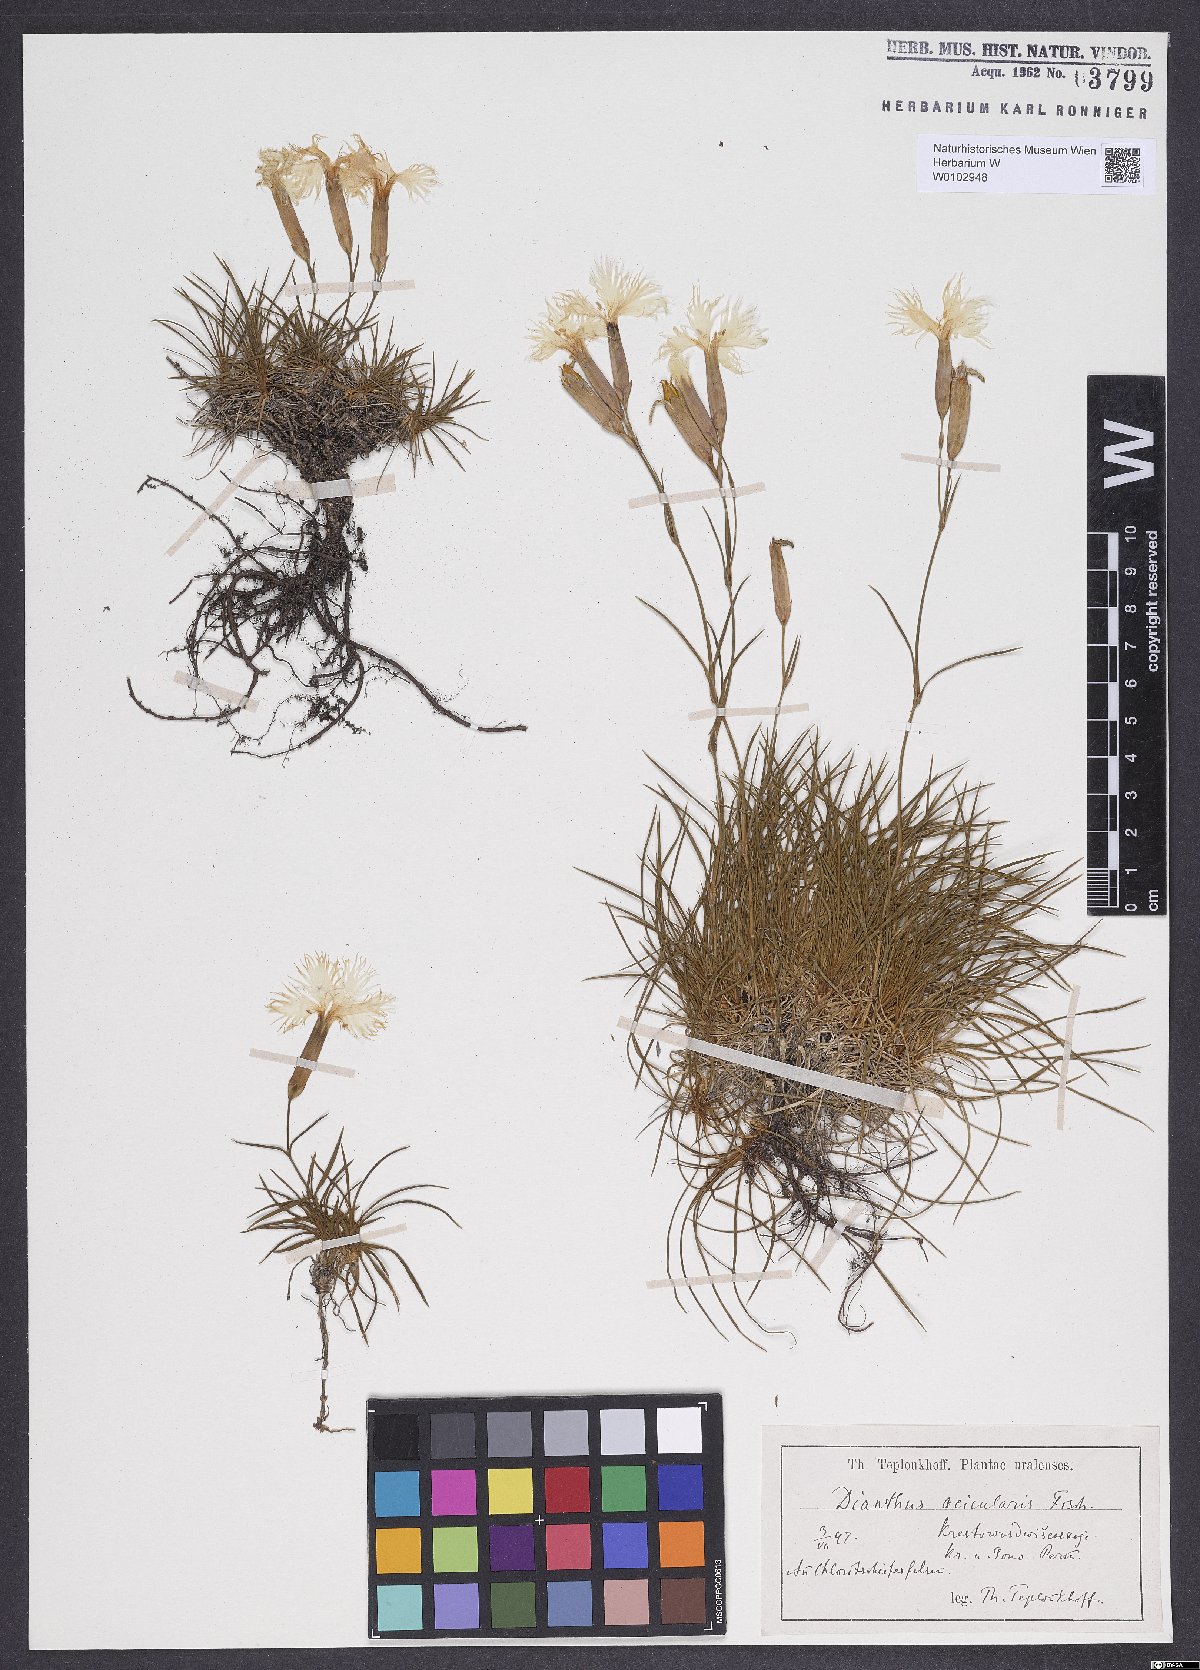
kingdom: Plantae
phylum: Tracheophyta
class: Magnoliopsida
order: Caryophyllales
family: Caryophyllaceae
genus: Dianthus
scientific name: Dianthus acicularis
